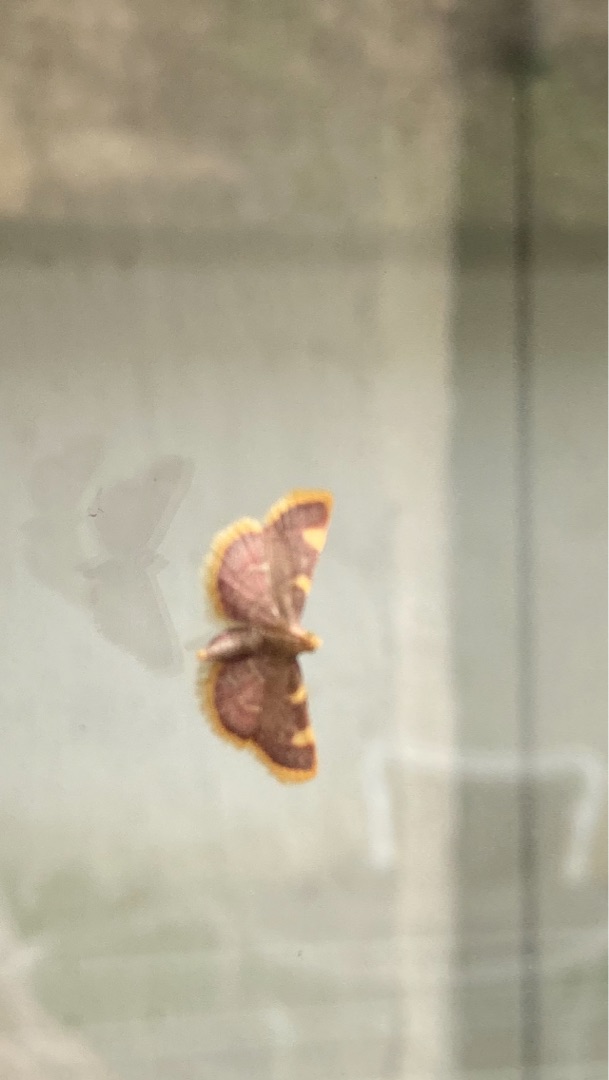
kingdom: Animalia
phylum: Arthropoda
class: Insecta
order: Lepidoptera
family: Pyralidae
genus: Hypsopygia
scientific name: Hypsopygia costalis
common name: Guldfrynset halvmøl
